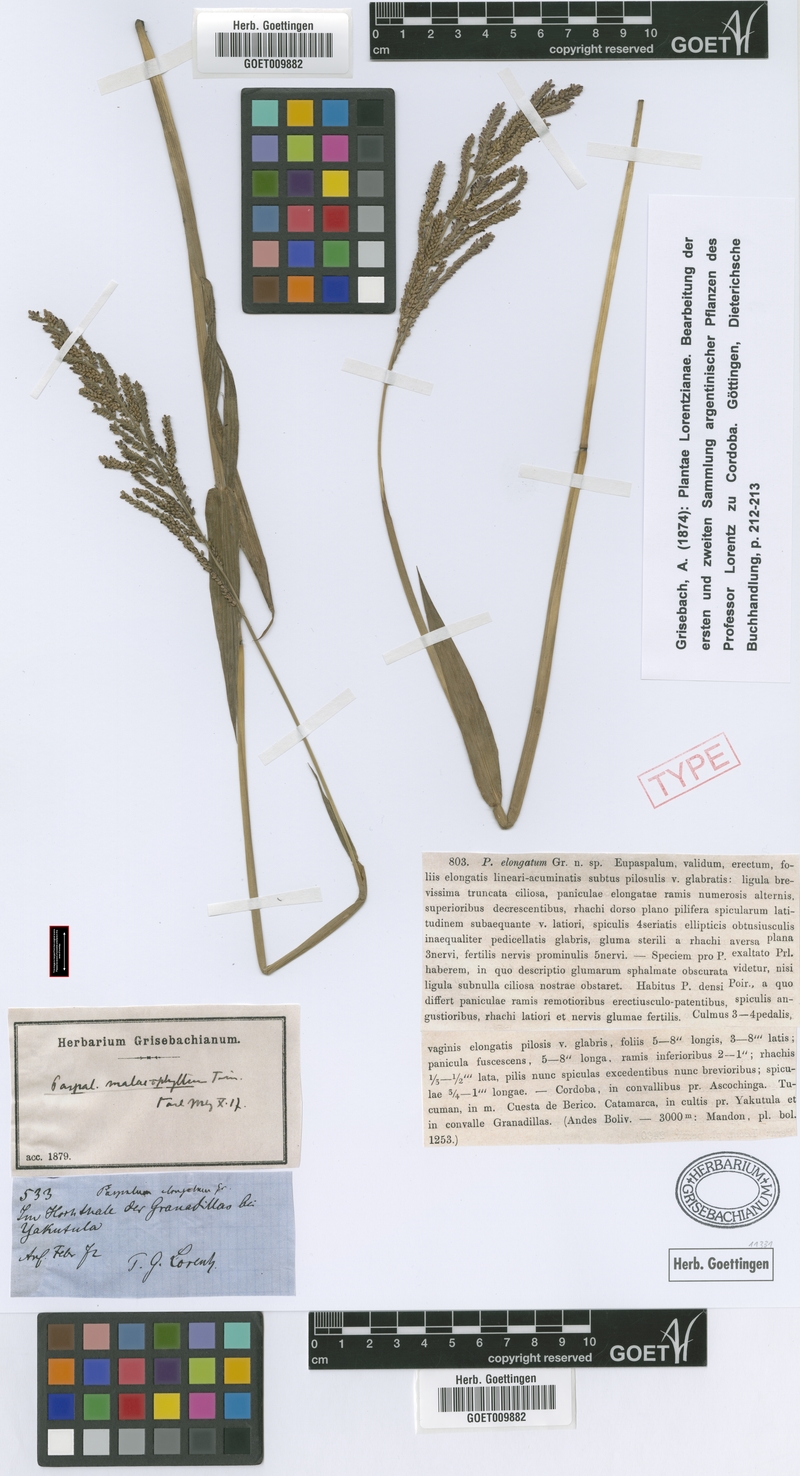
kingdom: Plantae
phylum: Tracheophyta
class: Liliopsida
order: Poales
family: Poaceae
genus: Paspalum
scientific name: Paspalum malacophyllum
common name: Ribbed paspalum
